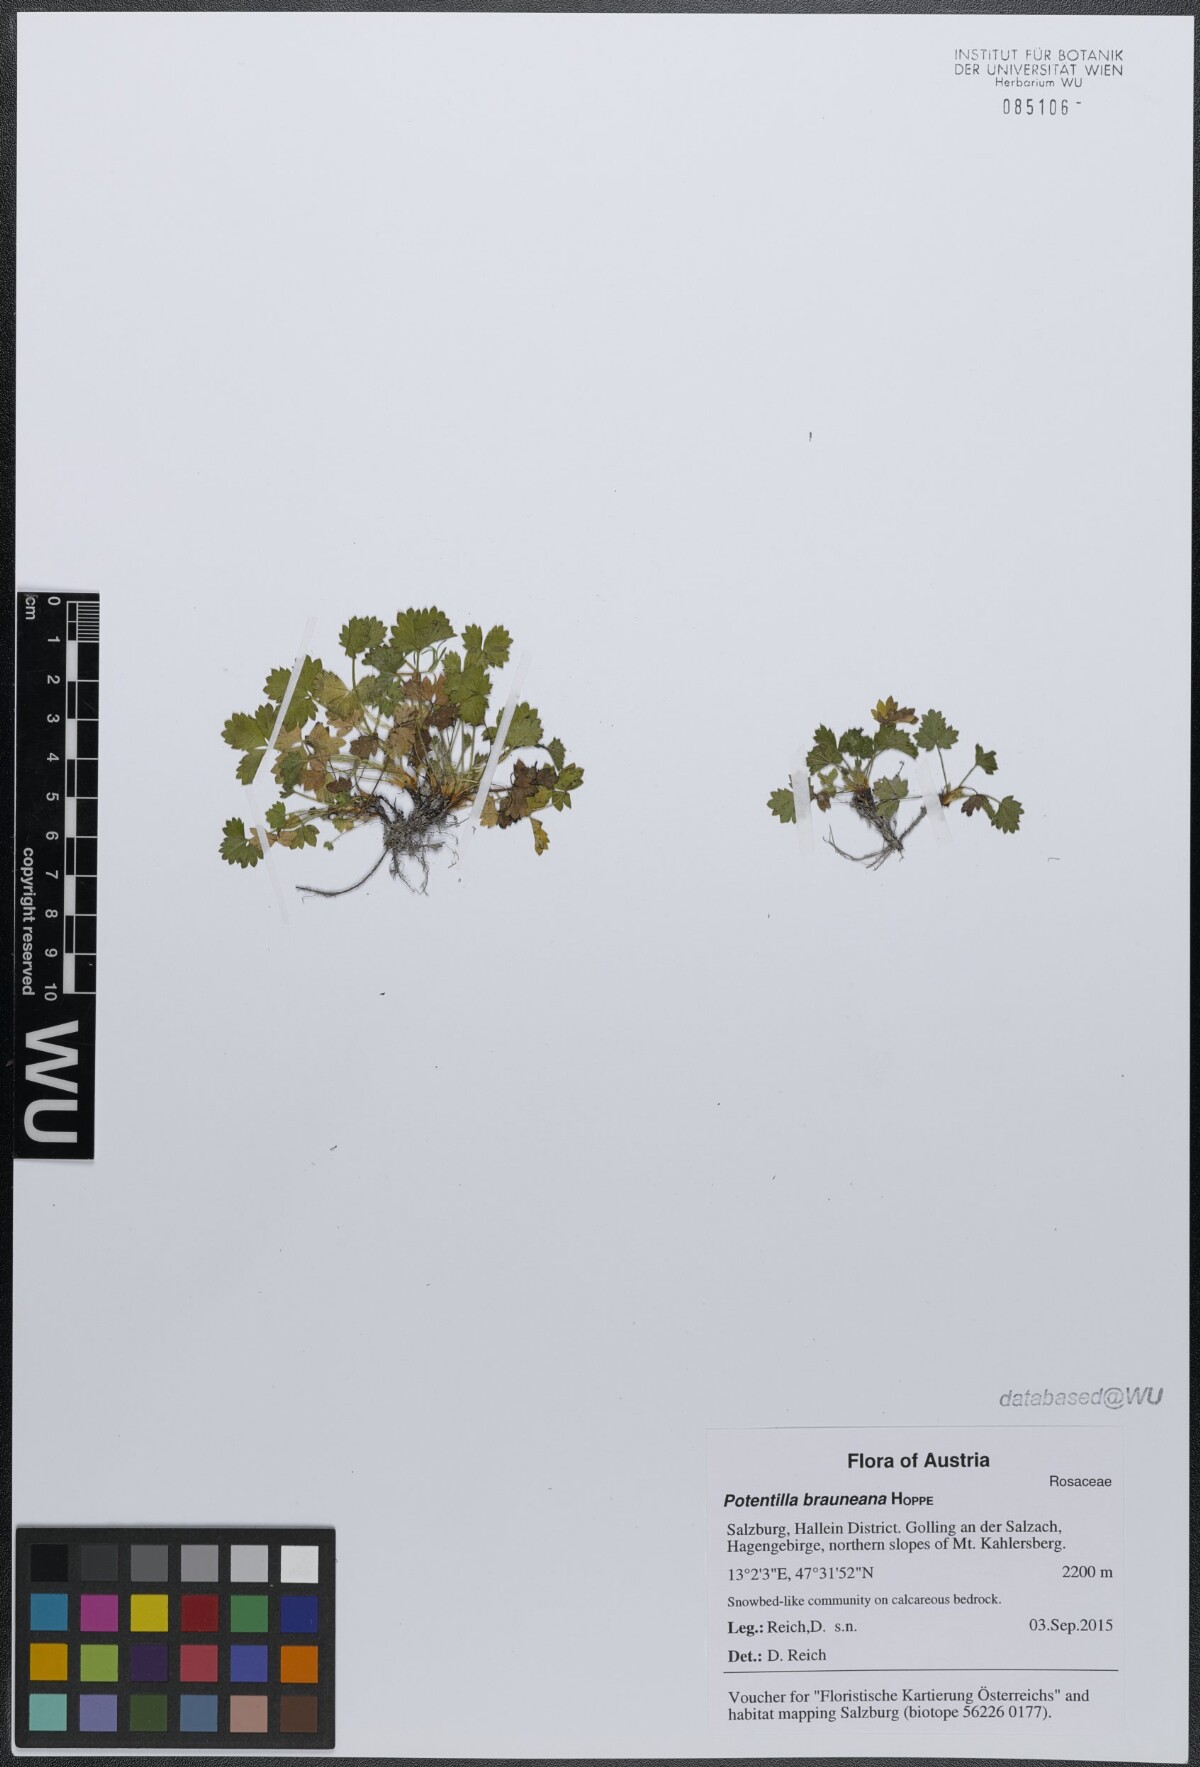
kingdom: Plantae
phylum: Tracheophyta
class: Magnoliopsida
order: Rosales
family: Rosaceae
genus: Potentilla
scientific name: Potentilla brauneana
